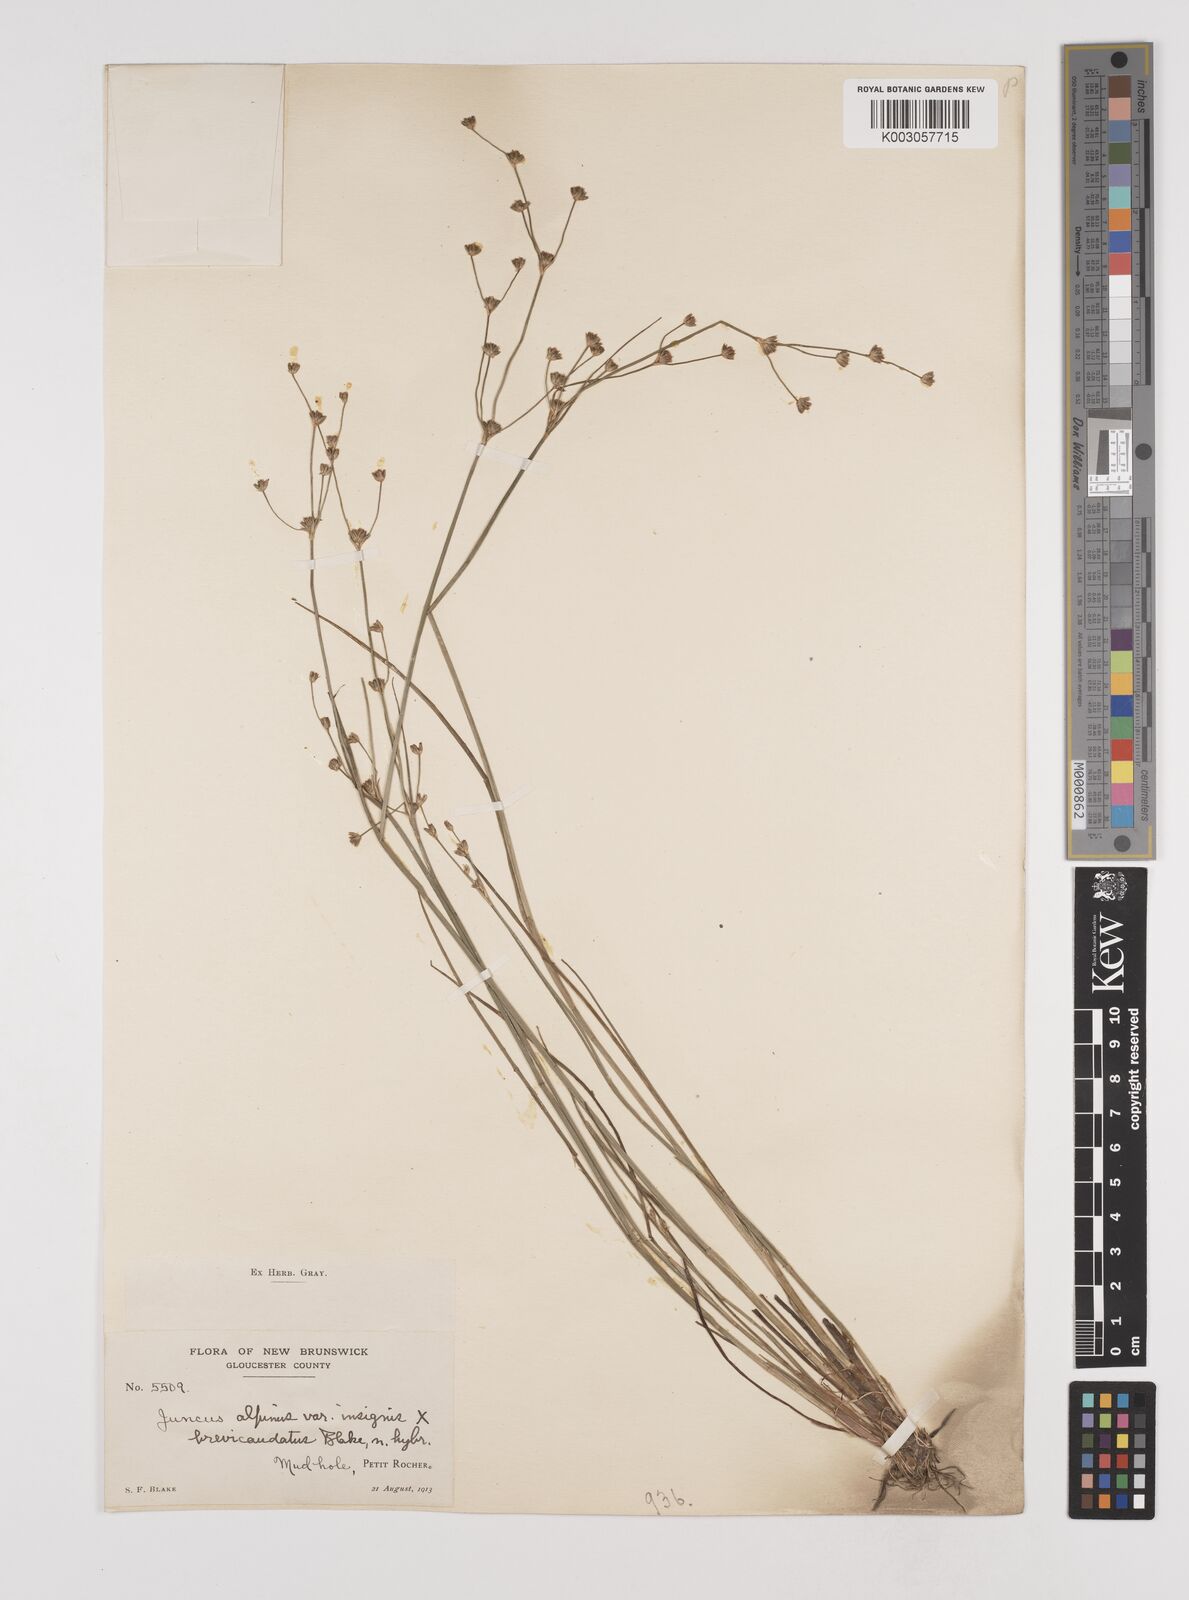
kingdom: Plantae
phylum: Tracheophyta
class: Liliopsida
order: Poales
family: Juncaceae
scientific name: Juncaceae
